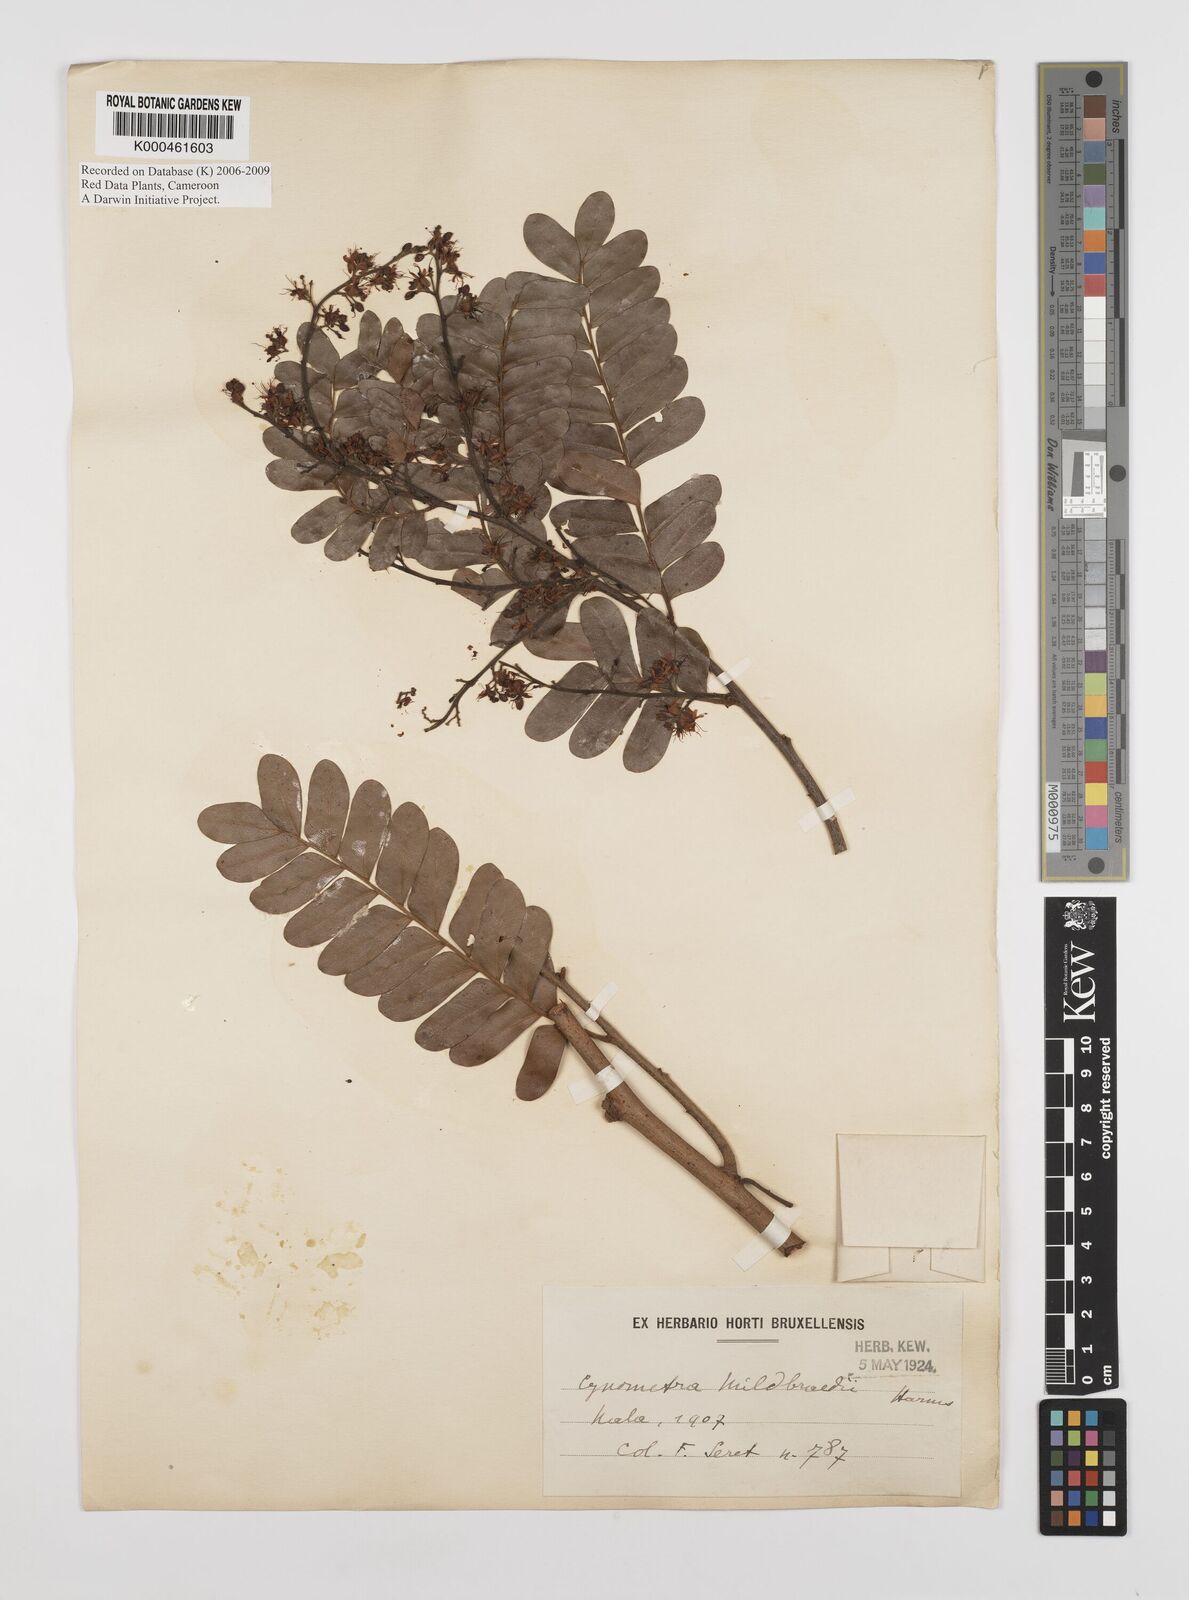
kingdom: Plantae
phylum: Tracheophyta
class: Magnoliopsida
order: Fabales
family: Fabaceae
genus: Gilletiodendron
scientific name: Gilletiodendron mildbraedii
